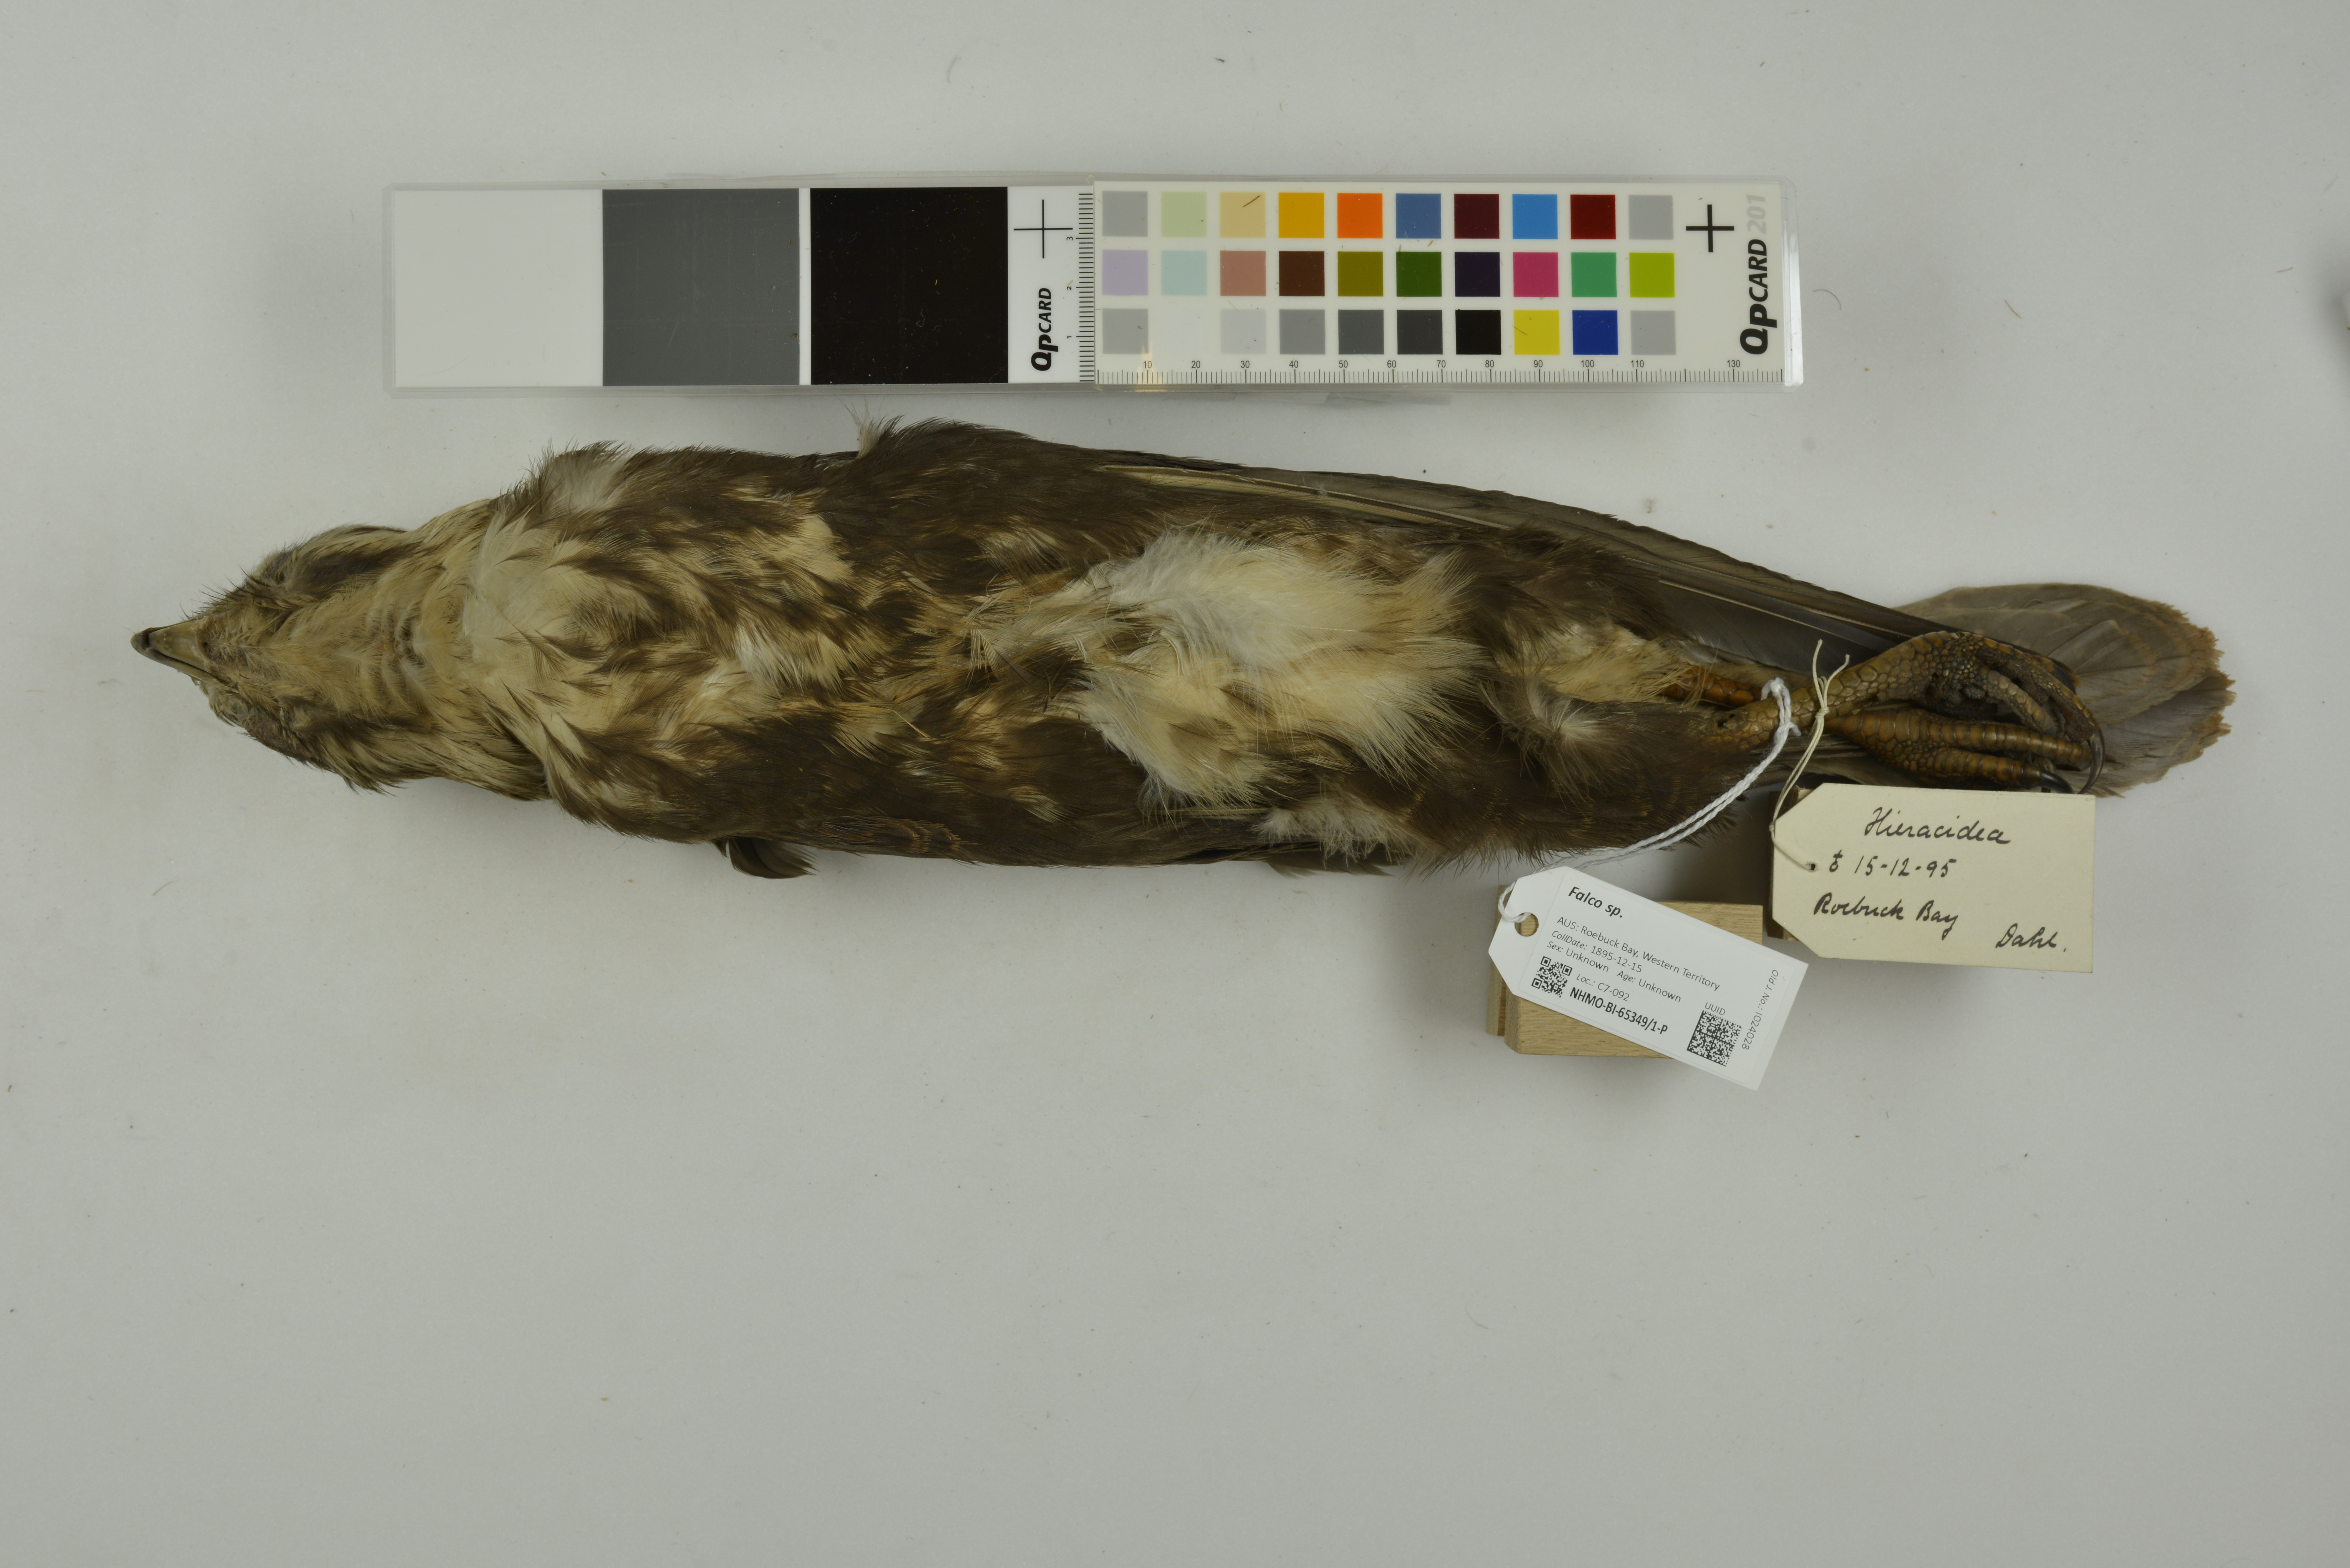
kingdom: Animalia
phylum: Chordata
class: Aves
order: Falconiformes
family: Falconidae
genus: Falco
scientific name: Falco berigora
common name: Brown falcon
